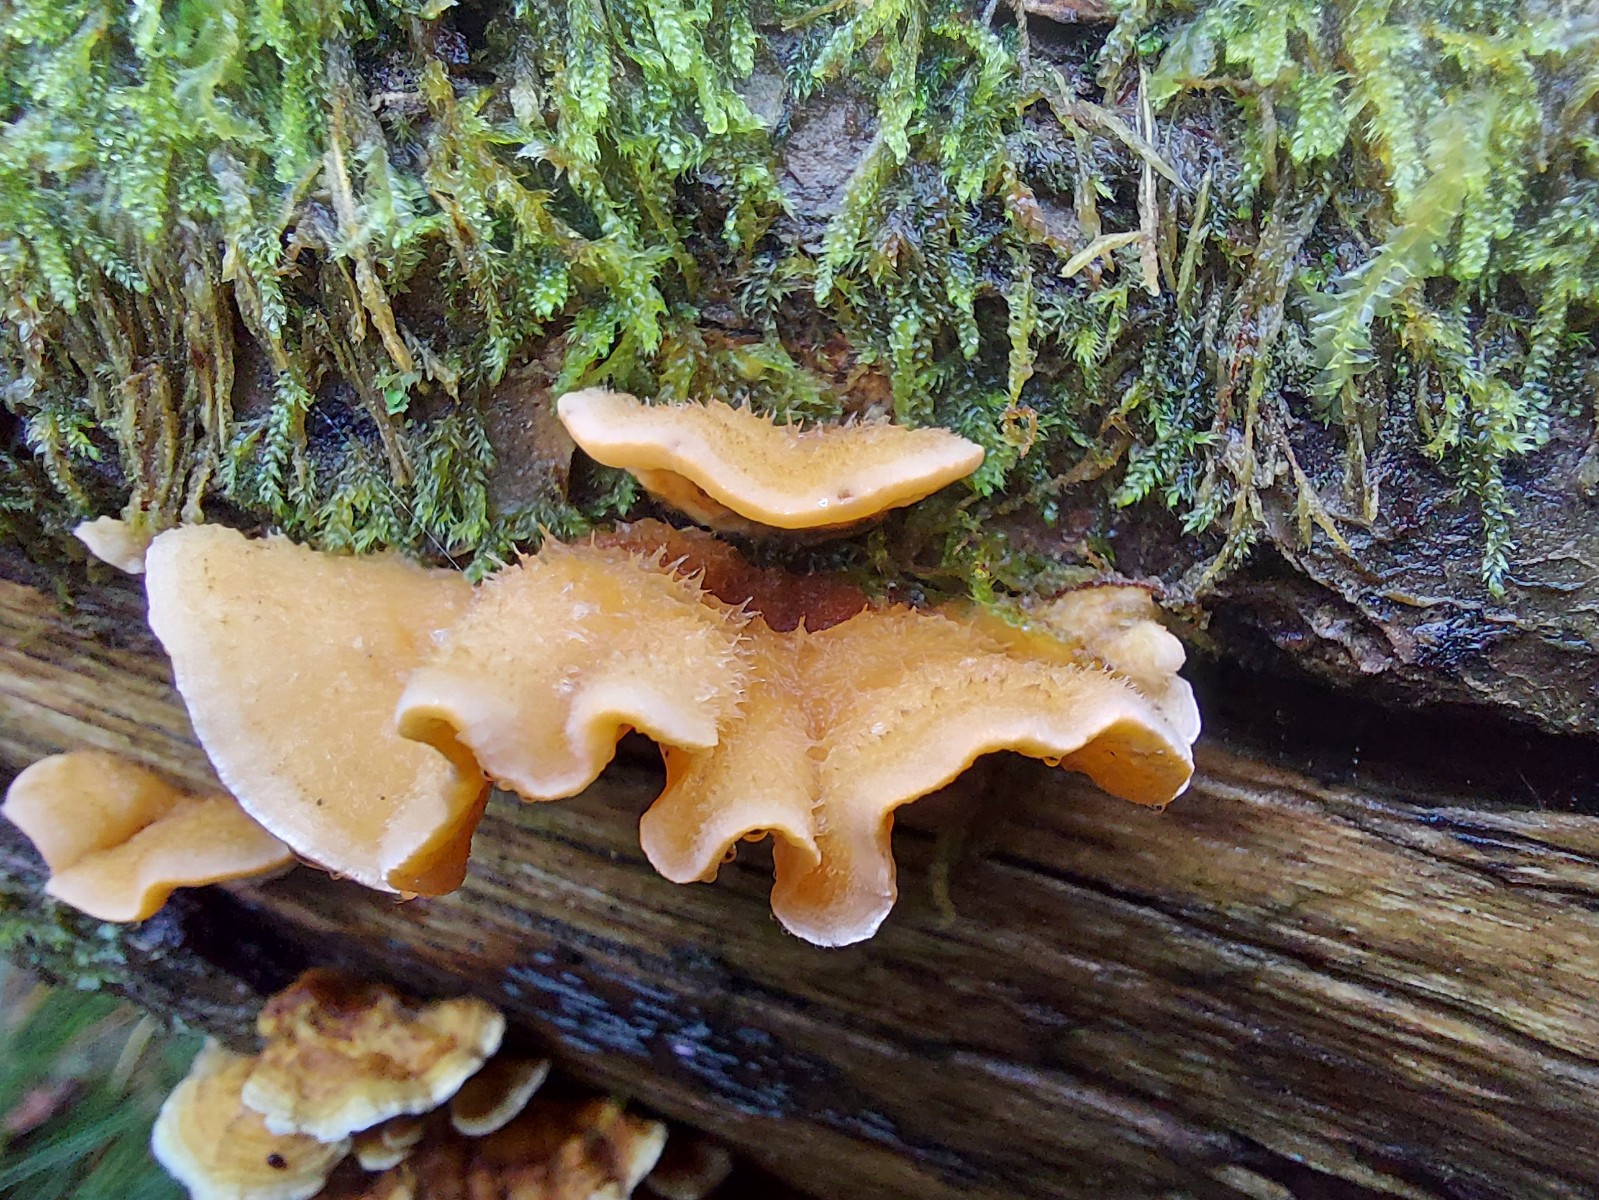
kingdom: Fungi
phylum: Basidiomycota
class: Agaricomycetes
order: Russulales
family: Stereaceae
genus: Stereum
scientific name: Stereum hirsutum
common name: håret lædersvamp
